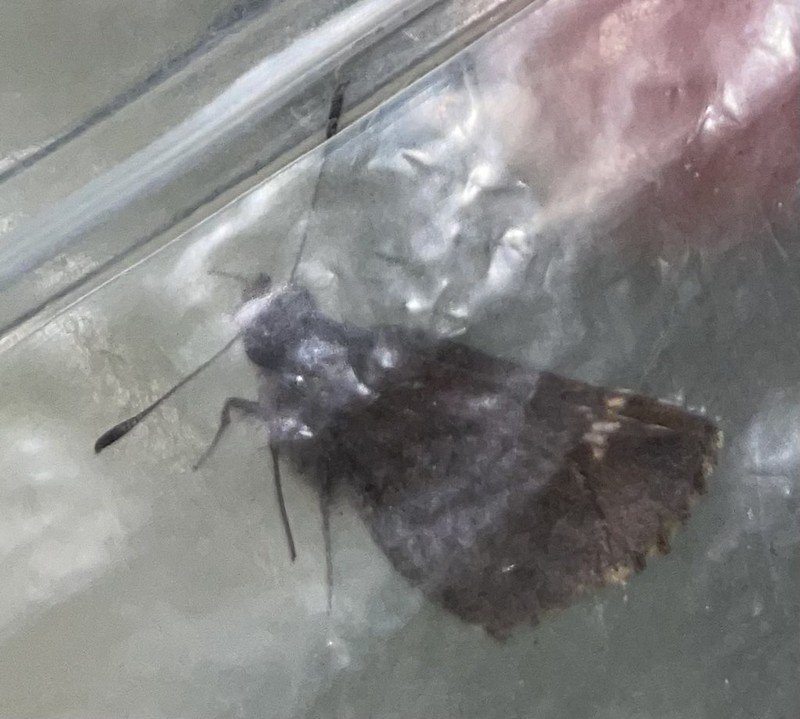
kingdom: Animalia
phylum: Arthropoda
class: Insecta
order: Lepidoptera
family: Hesperiidae
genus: Mastor
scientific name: Mastor vialis
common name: Common Roadside-Skipper
